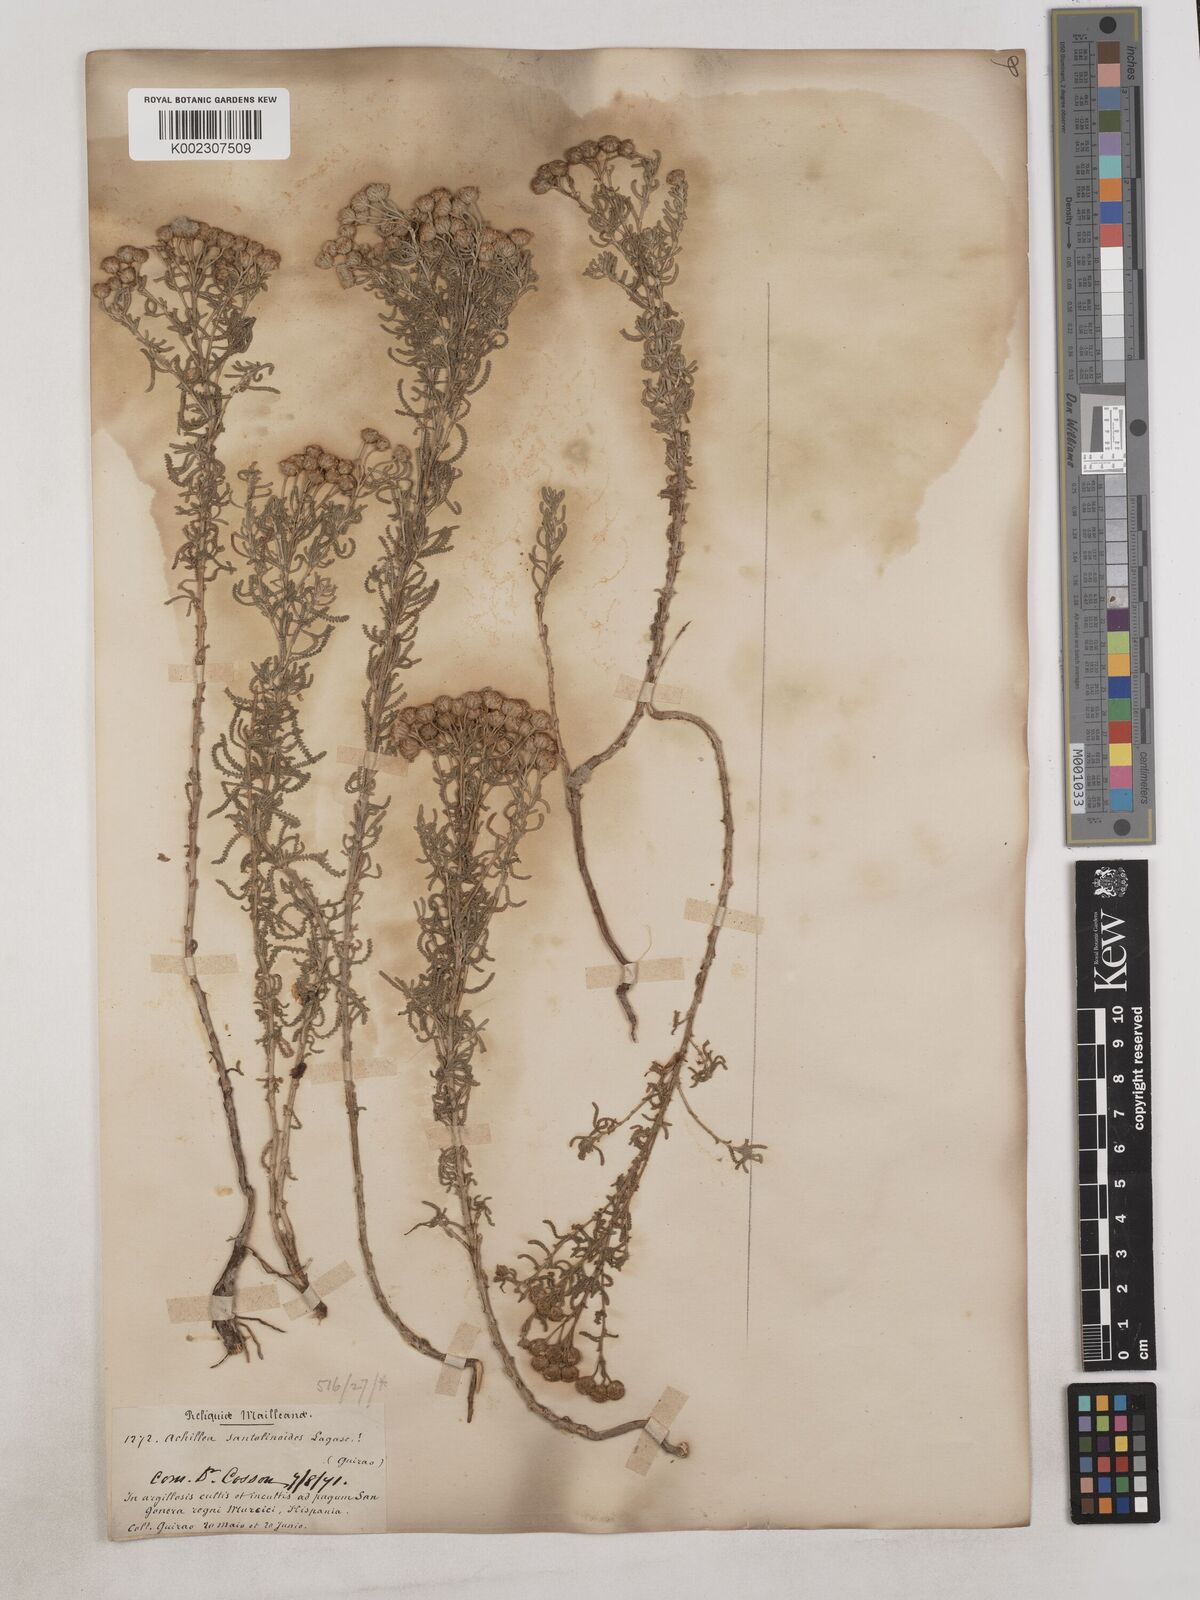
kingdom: Plantae
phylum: Tracheophyta
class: Magnoliopsida
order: Asterales
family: Asteraceae
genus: Achillea
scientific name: Achillea santolinoides
